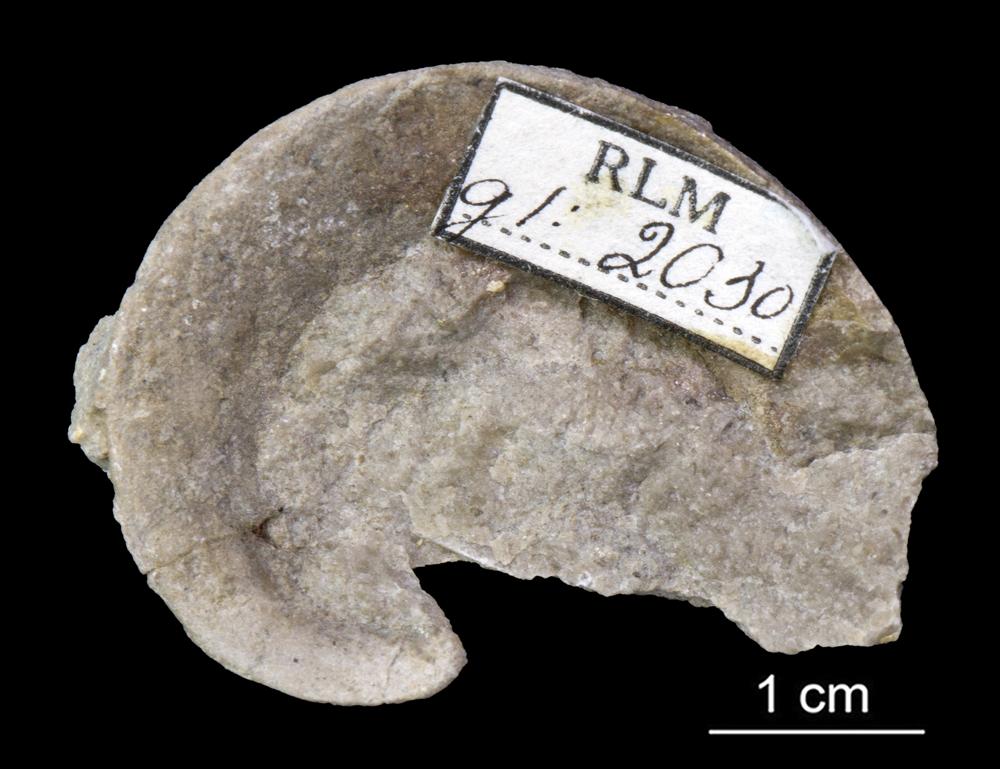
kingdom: Animalia
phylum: Mollusca
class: Gastropoda
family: Lesueurillidae
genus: Lesueurilla
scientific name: Lesueurilla
